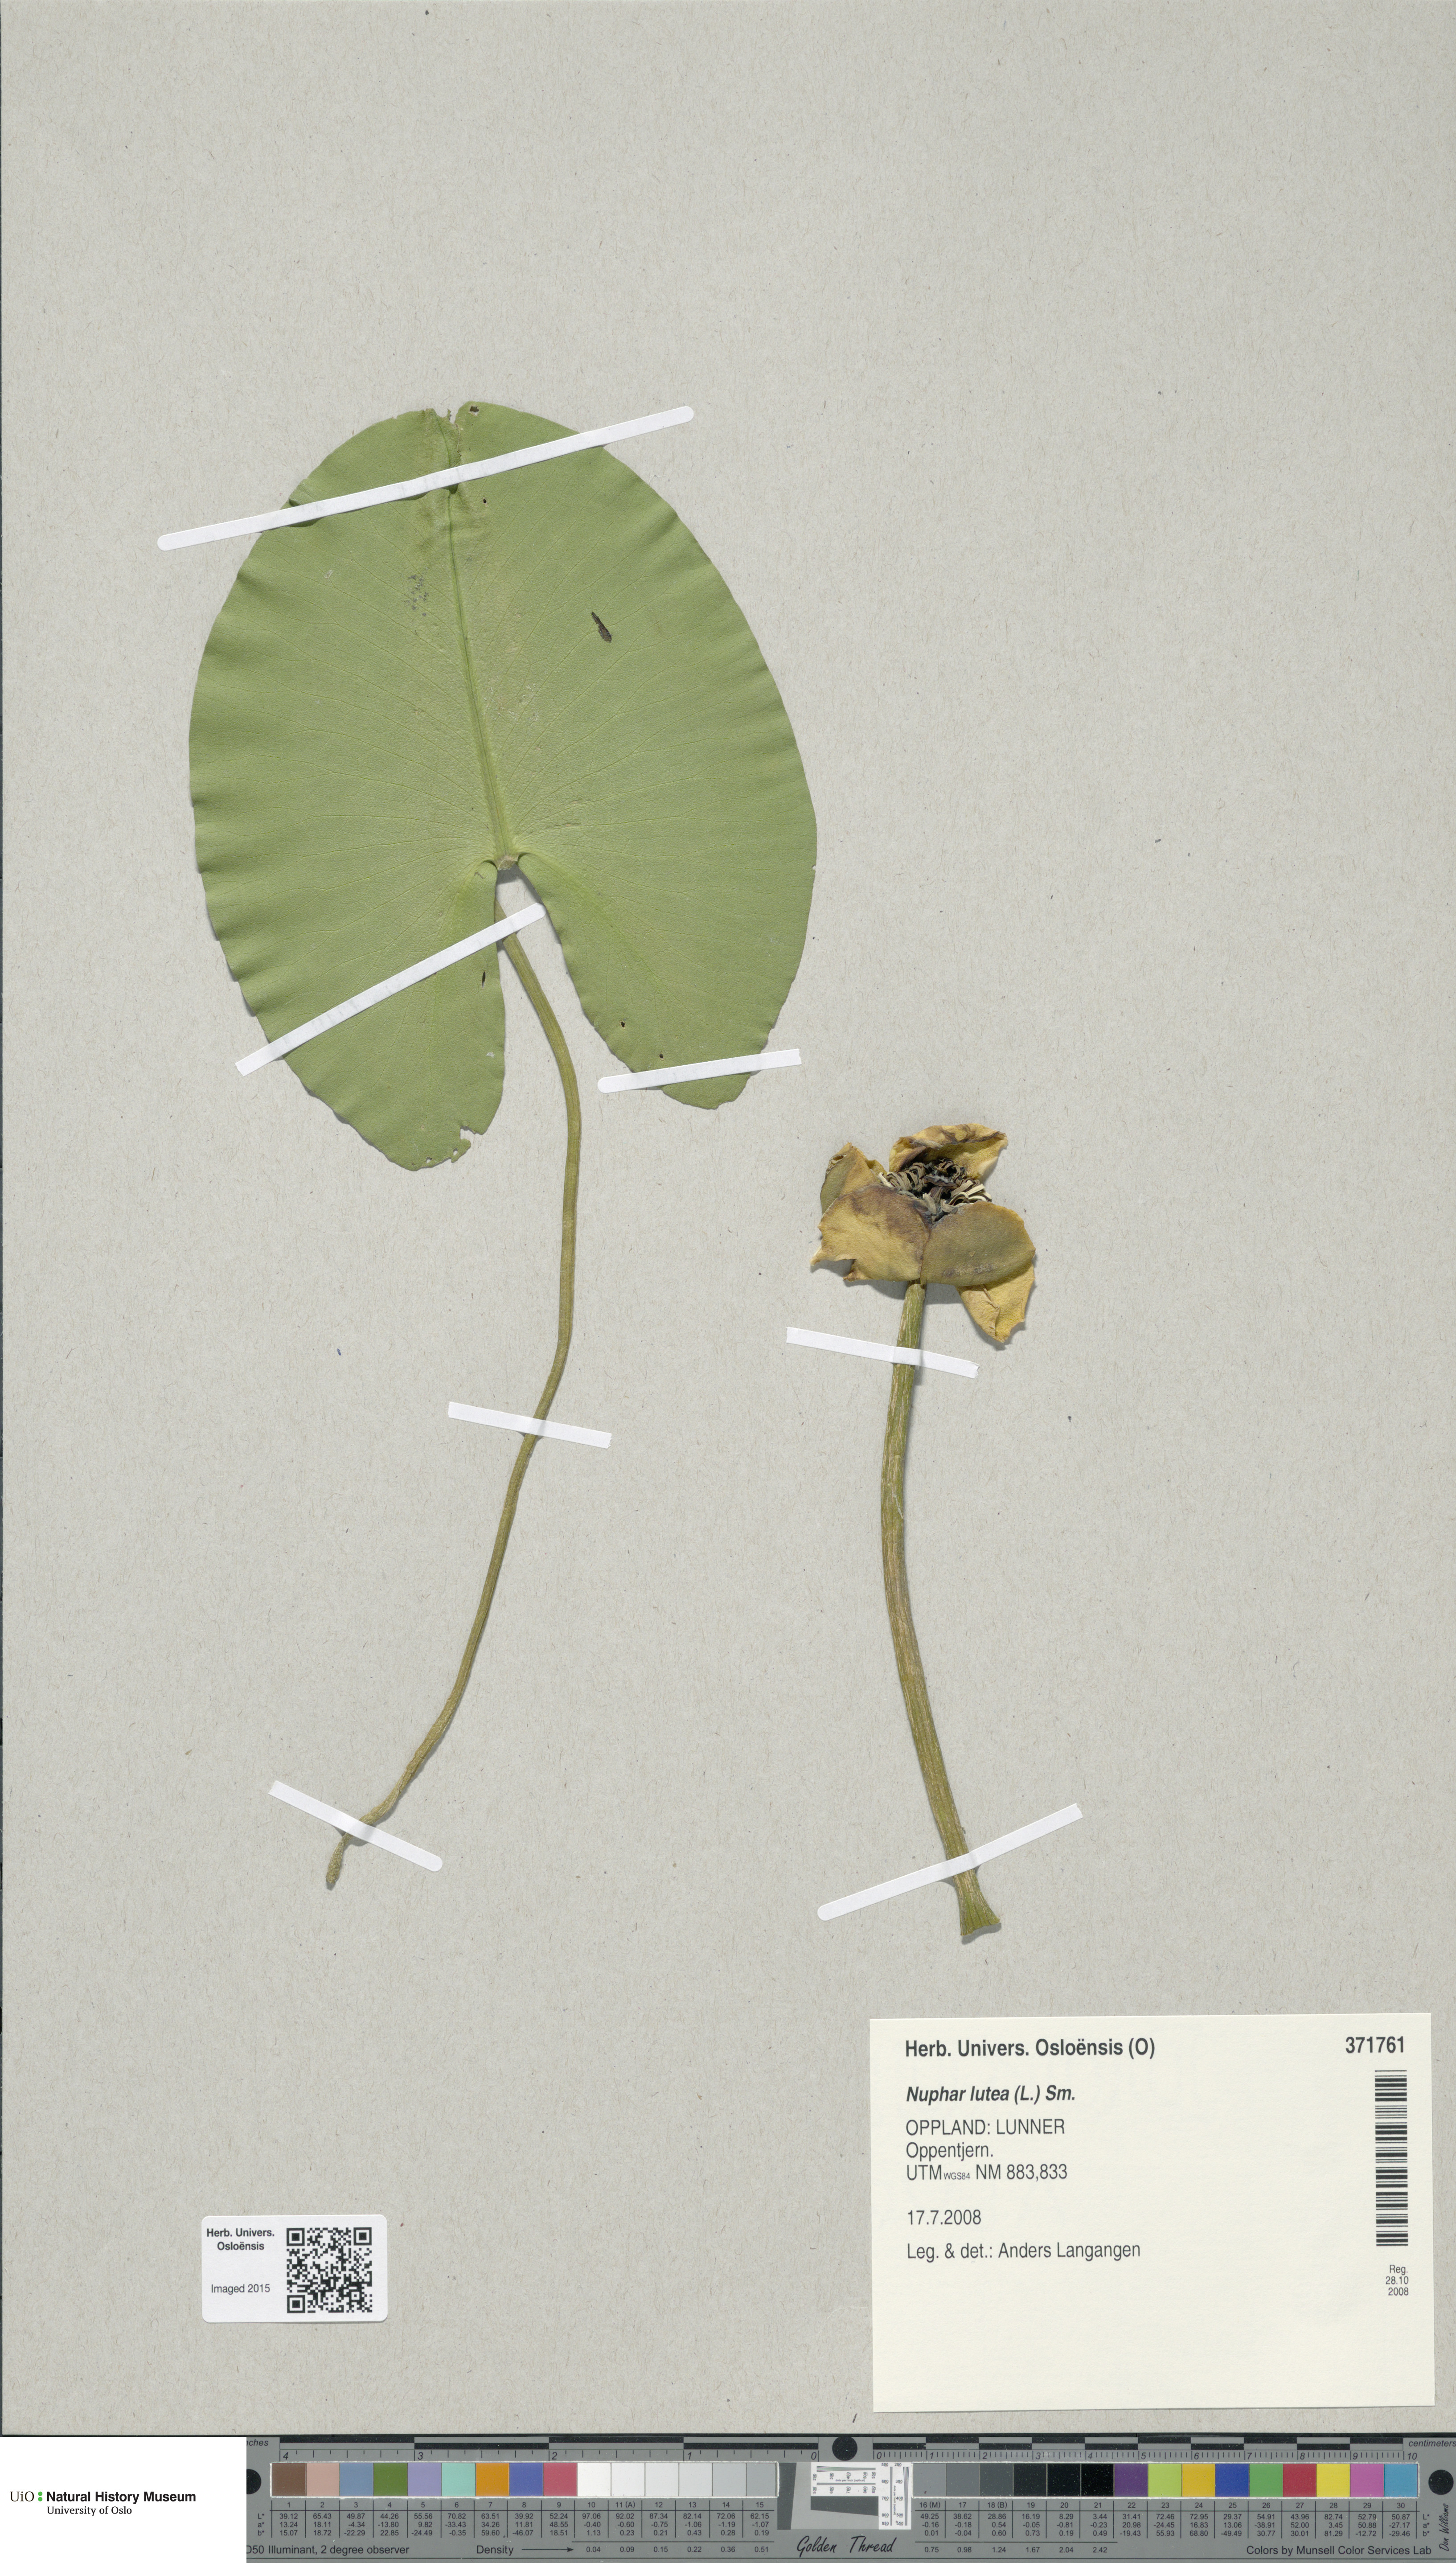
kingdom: Plantae
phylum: Tracheophyta
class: Magnoliopsida
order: Nymphaeales
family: Nymphaeaceae
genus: Nuphar
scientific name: Nuphar lutea
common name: Yellow water-lily
